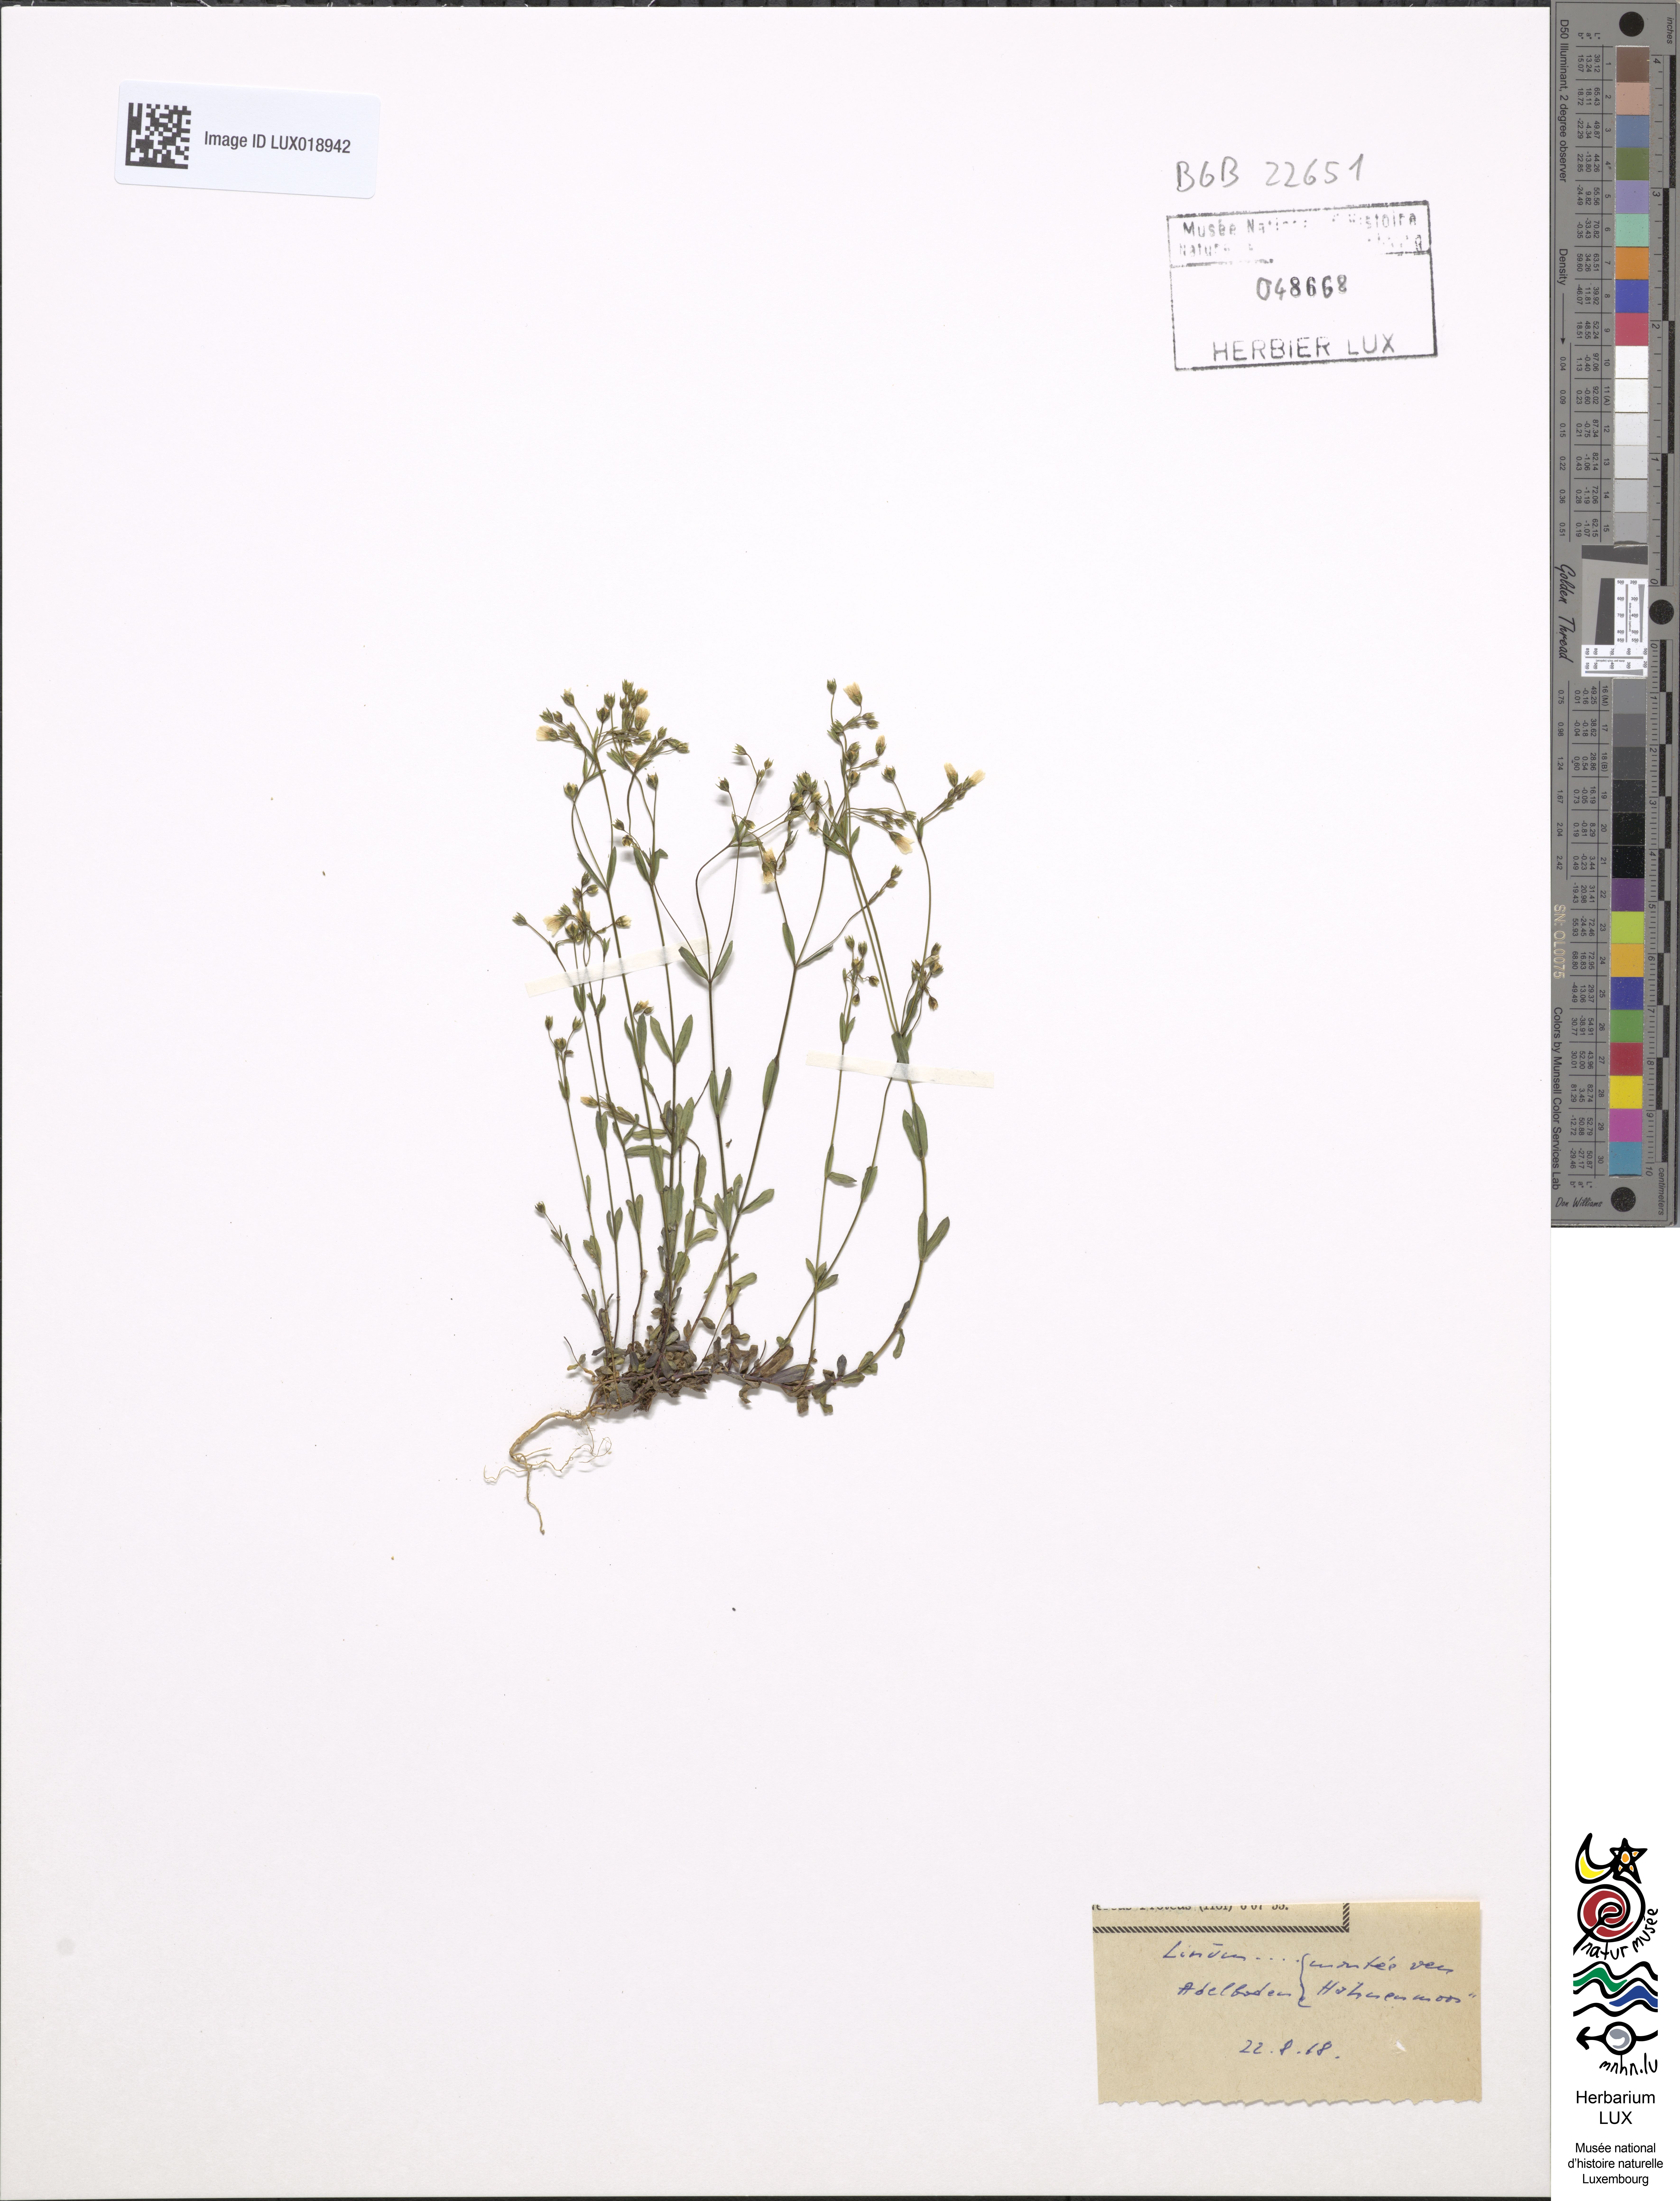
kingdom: Plantae
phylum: Tracheophyta
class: Magnoliopsida
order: Malpighiales
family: Linaceae
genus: Linum
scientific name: Linum
